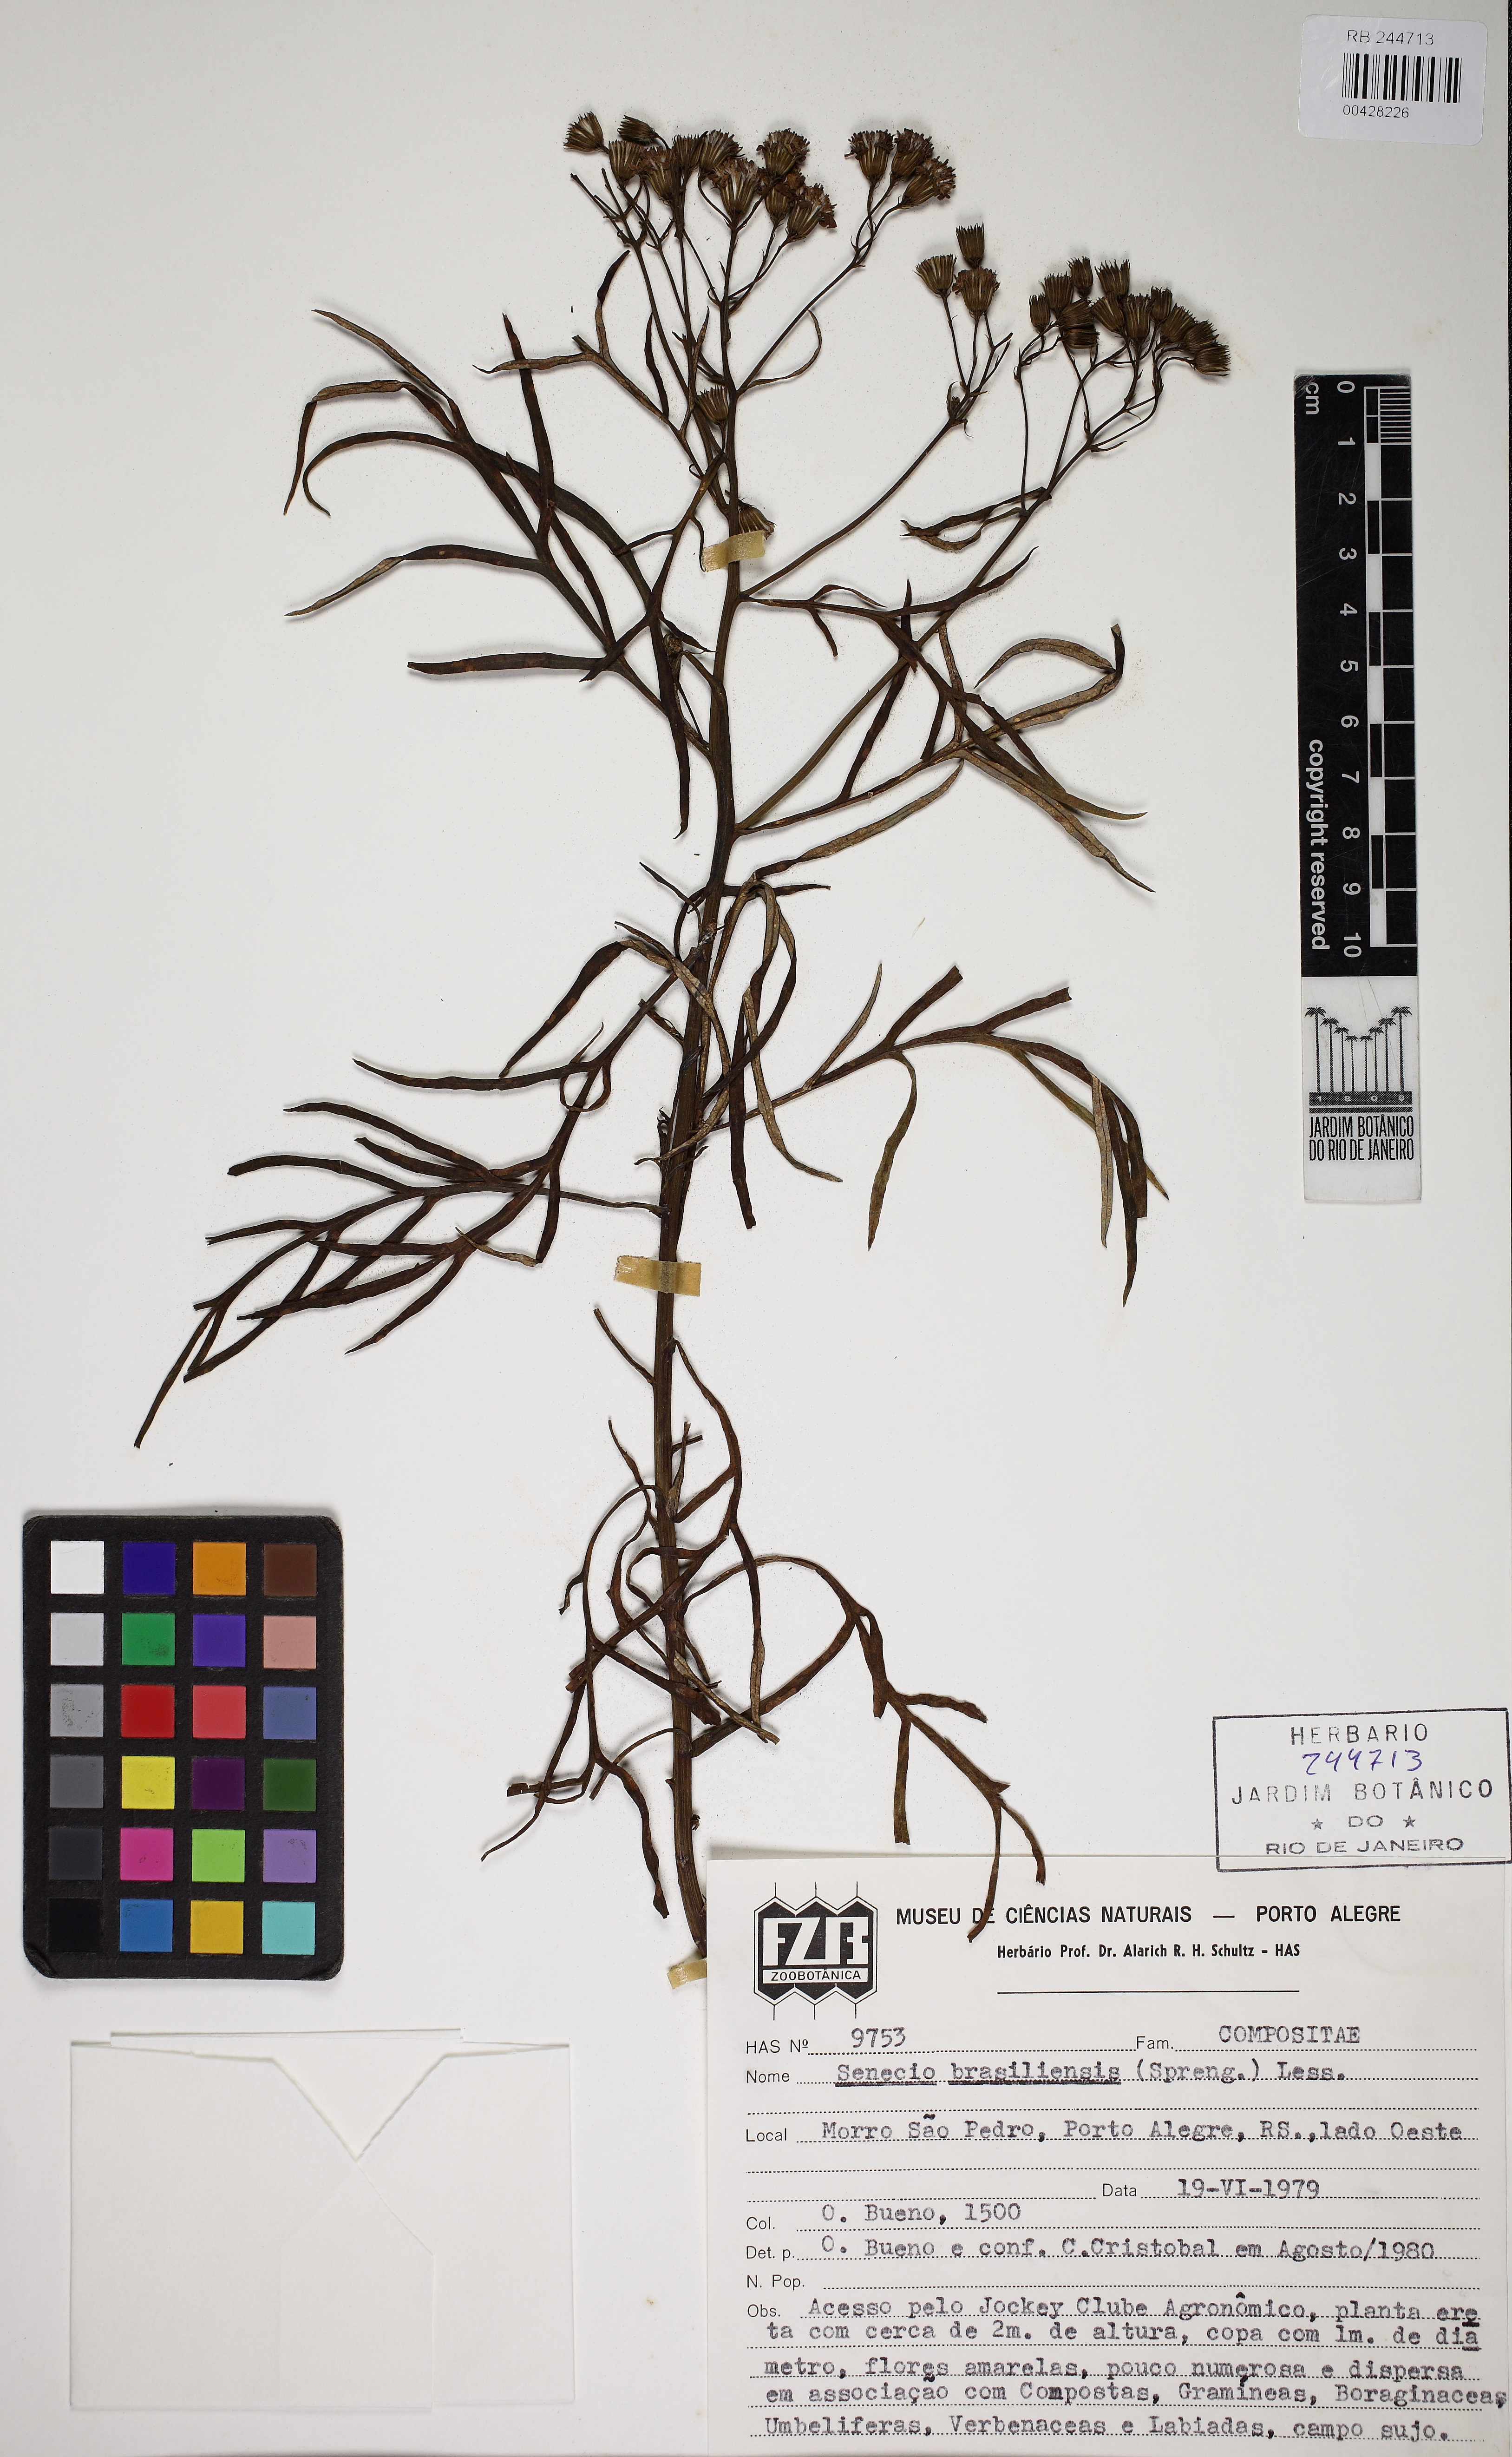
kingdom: Plantae
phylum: Tracheophyta
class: Magnoliopsida
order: Asterales
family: Asteraceae
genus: Senecio
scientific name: Senecio brasiliensis
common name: Hemp-leaf ragwort
